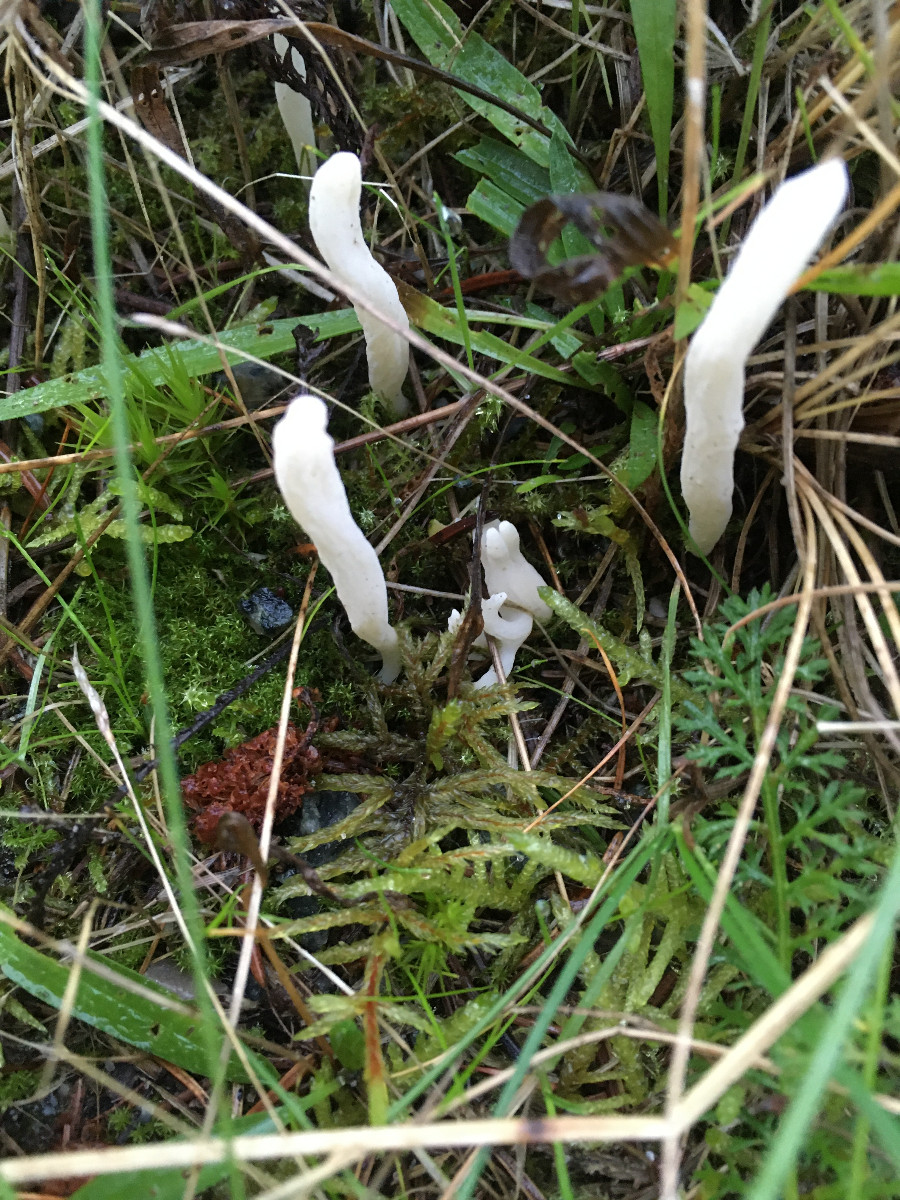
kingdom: Plantae
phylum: Bryophyta
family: Agaricomycetidae
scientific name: Agaricomycetidae
